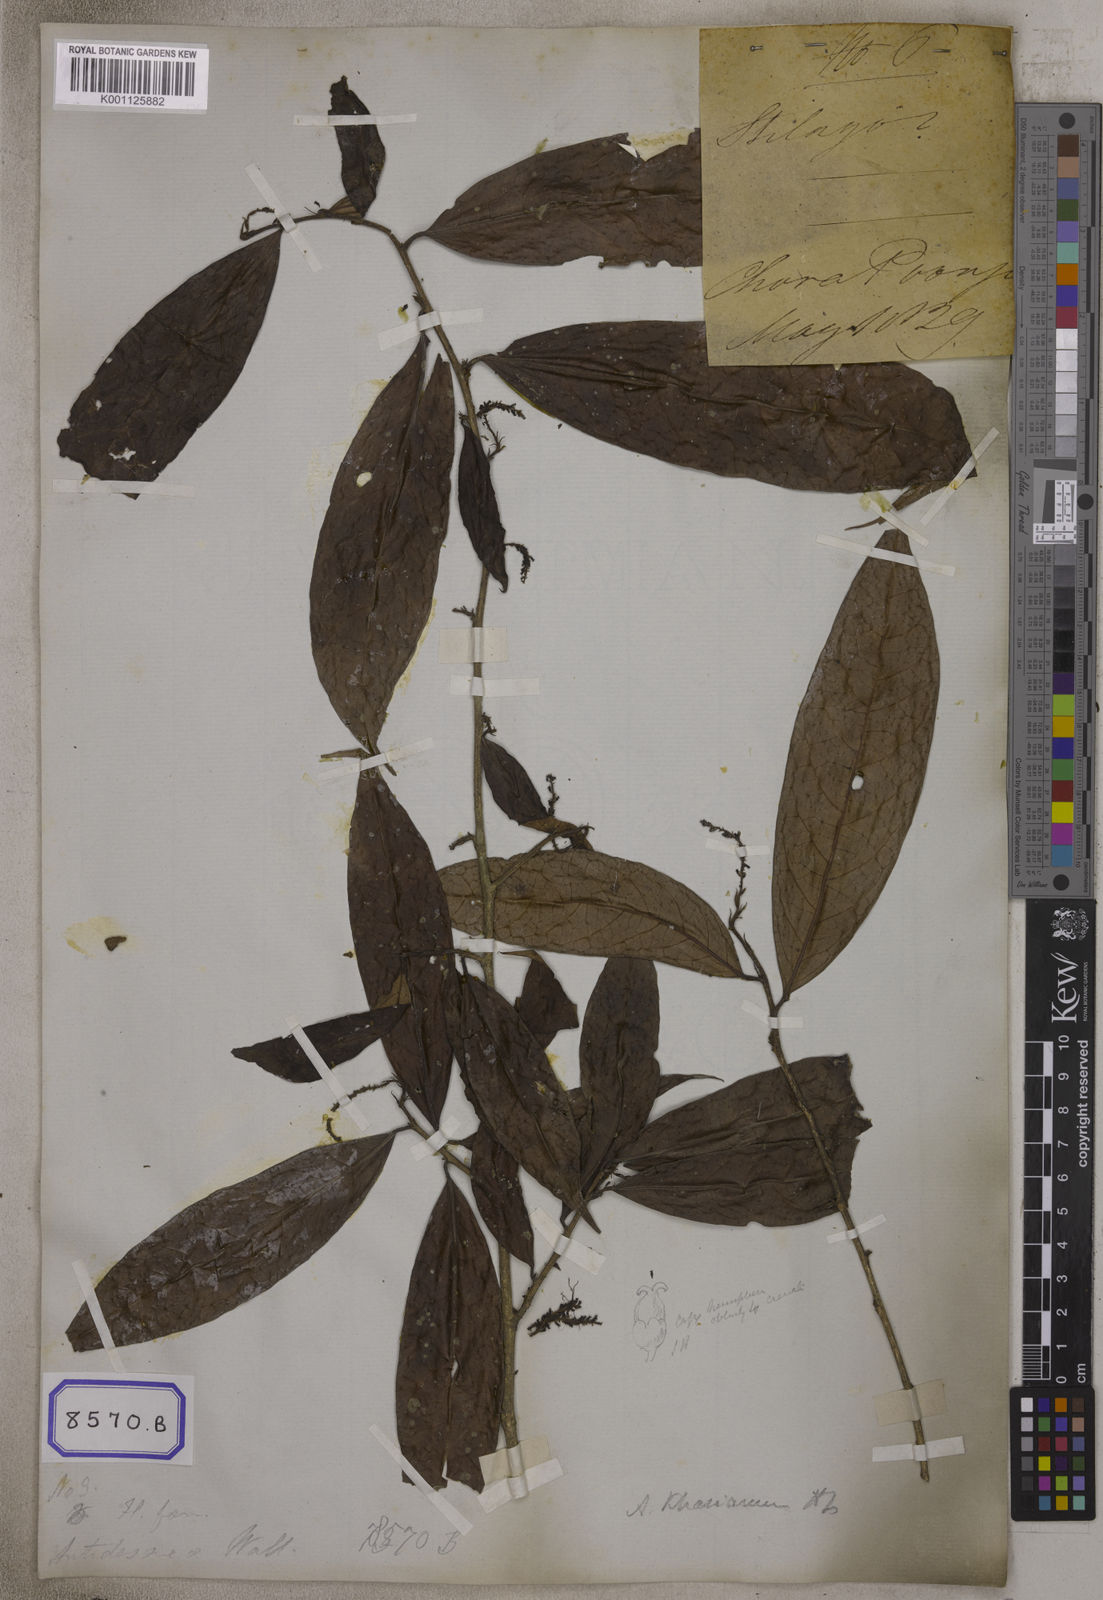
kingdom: Plantae
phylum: Tracheophyta
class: Magnoliopsida
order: Malpighiales
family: Phyllanthaceae
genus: Antidesma
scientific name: Antidesma
